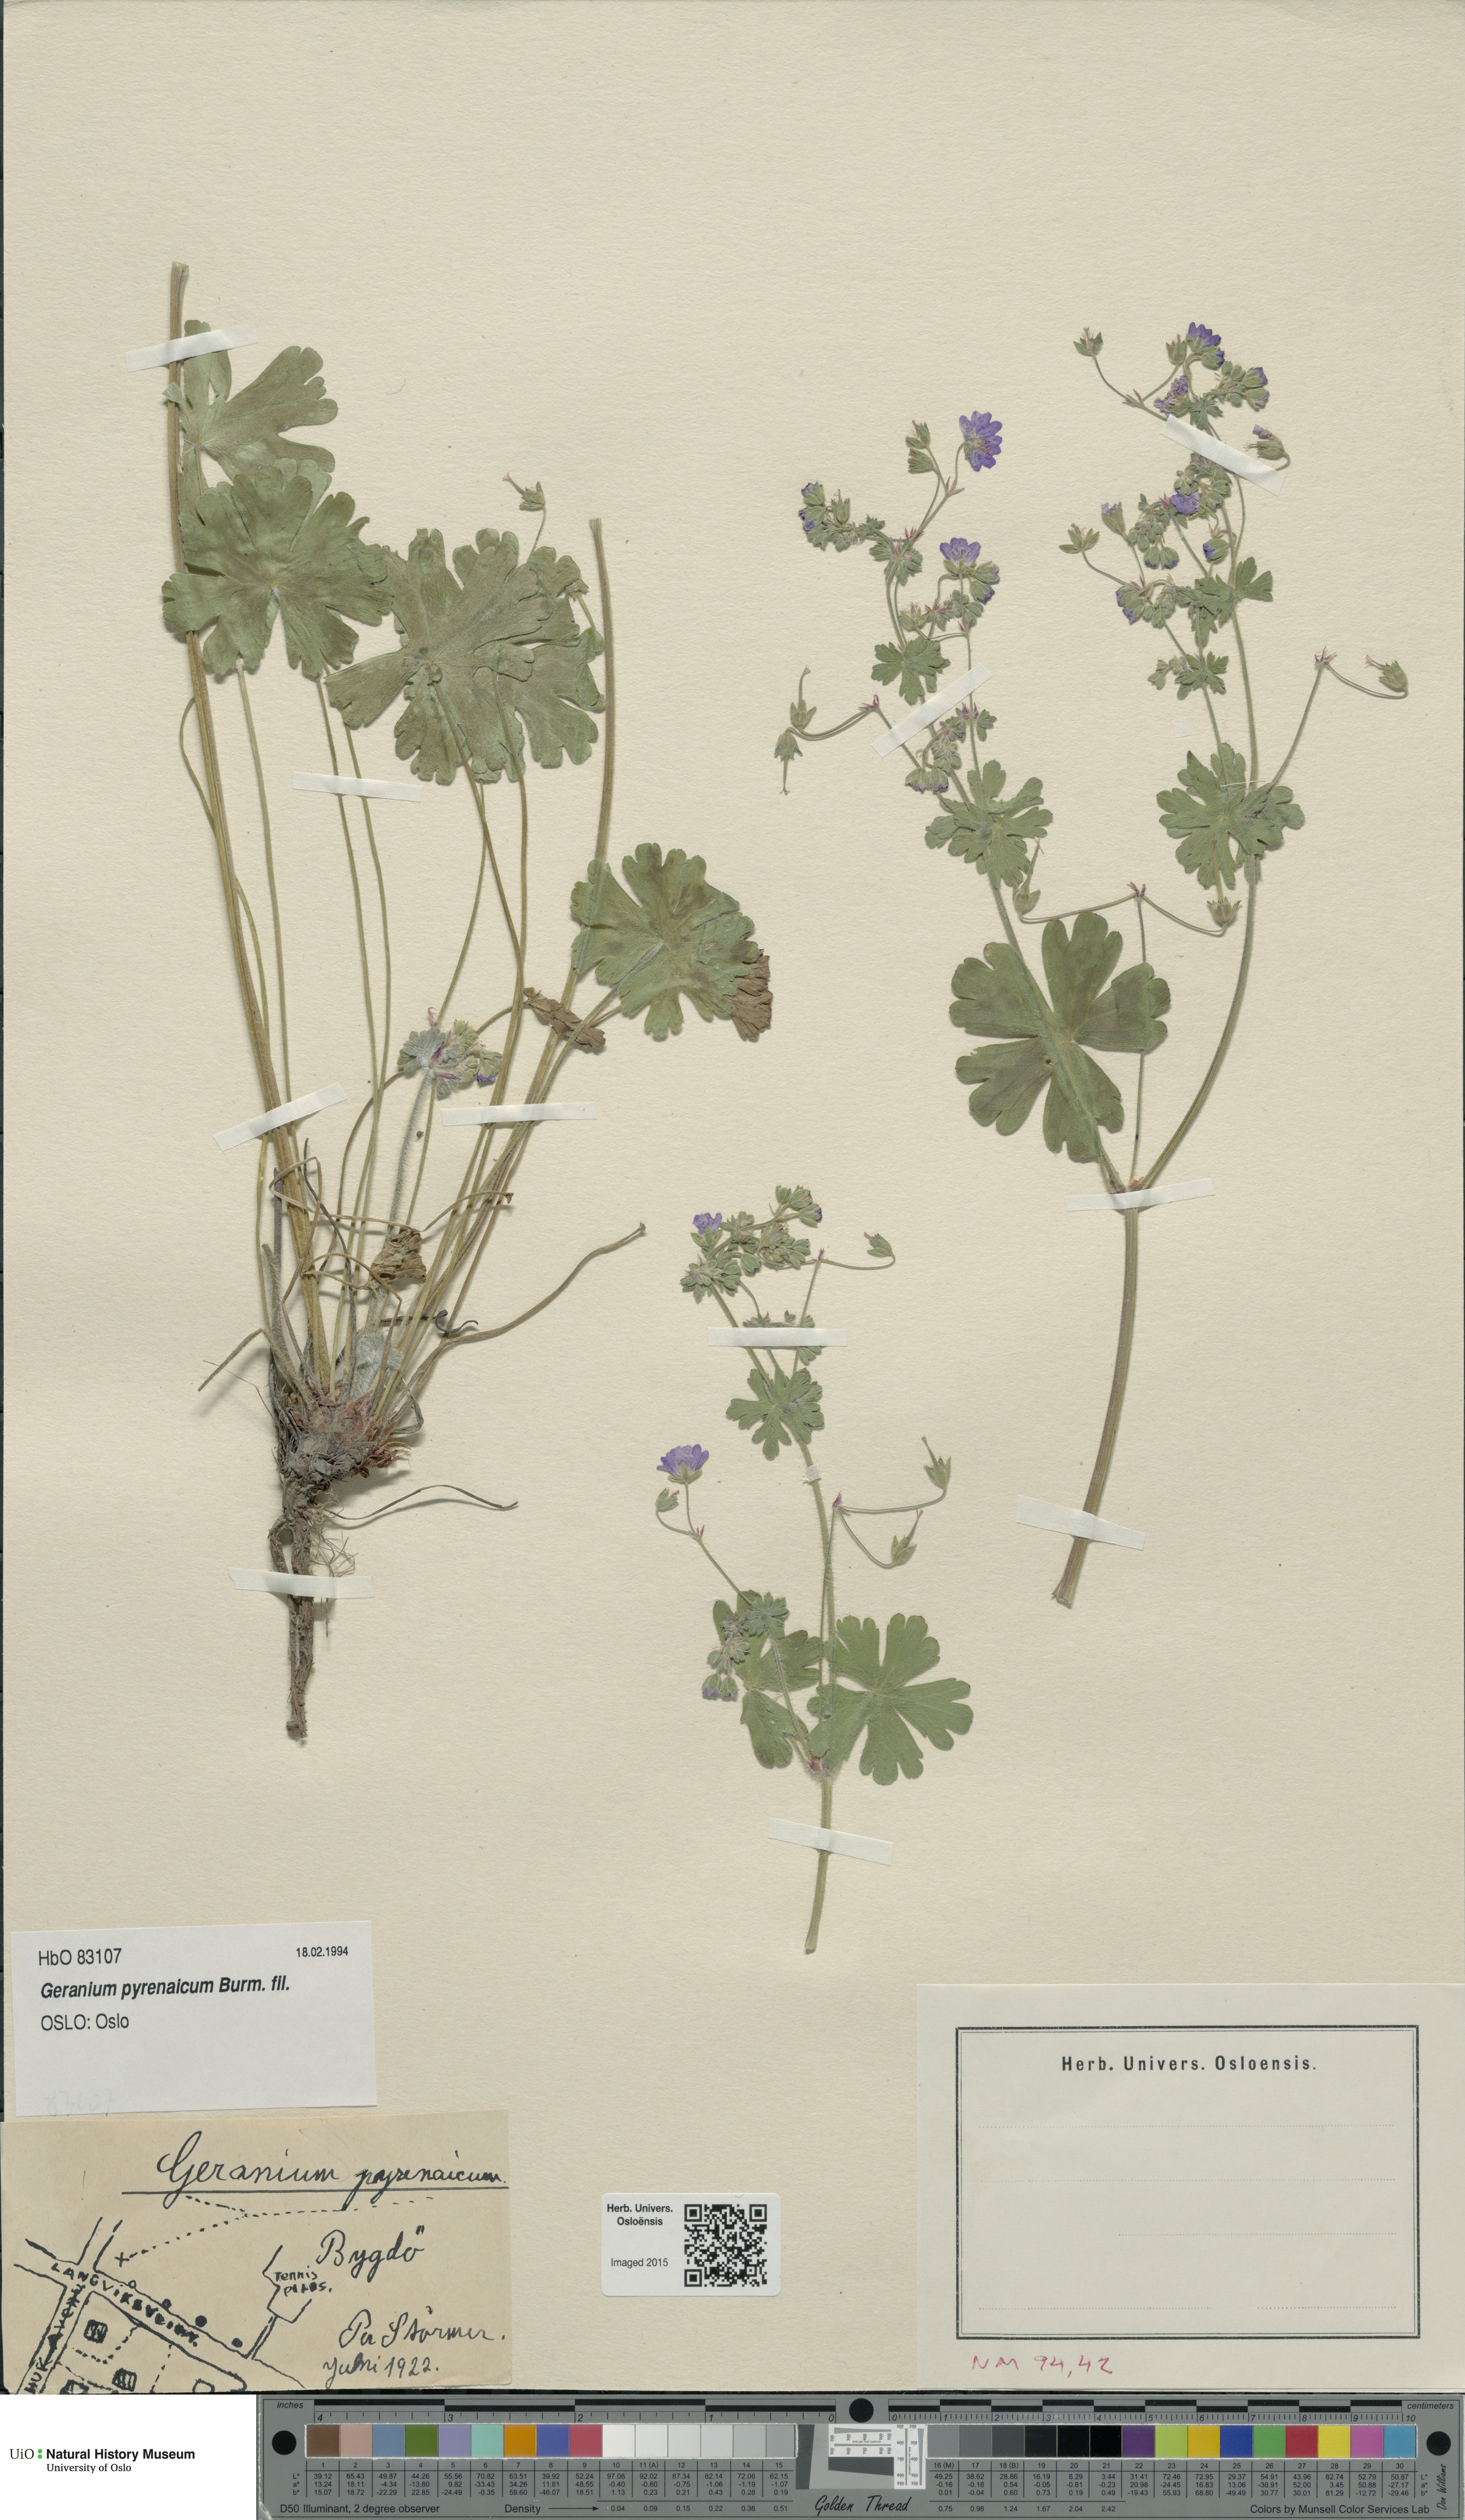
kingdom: Plantae
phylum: Tracheophyta
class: Magnoliopsida
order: Geraniales
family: Geraniaceae
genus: Geranium
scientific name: Geranium pyrenaicum
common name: Hedgerow crane's-bill
